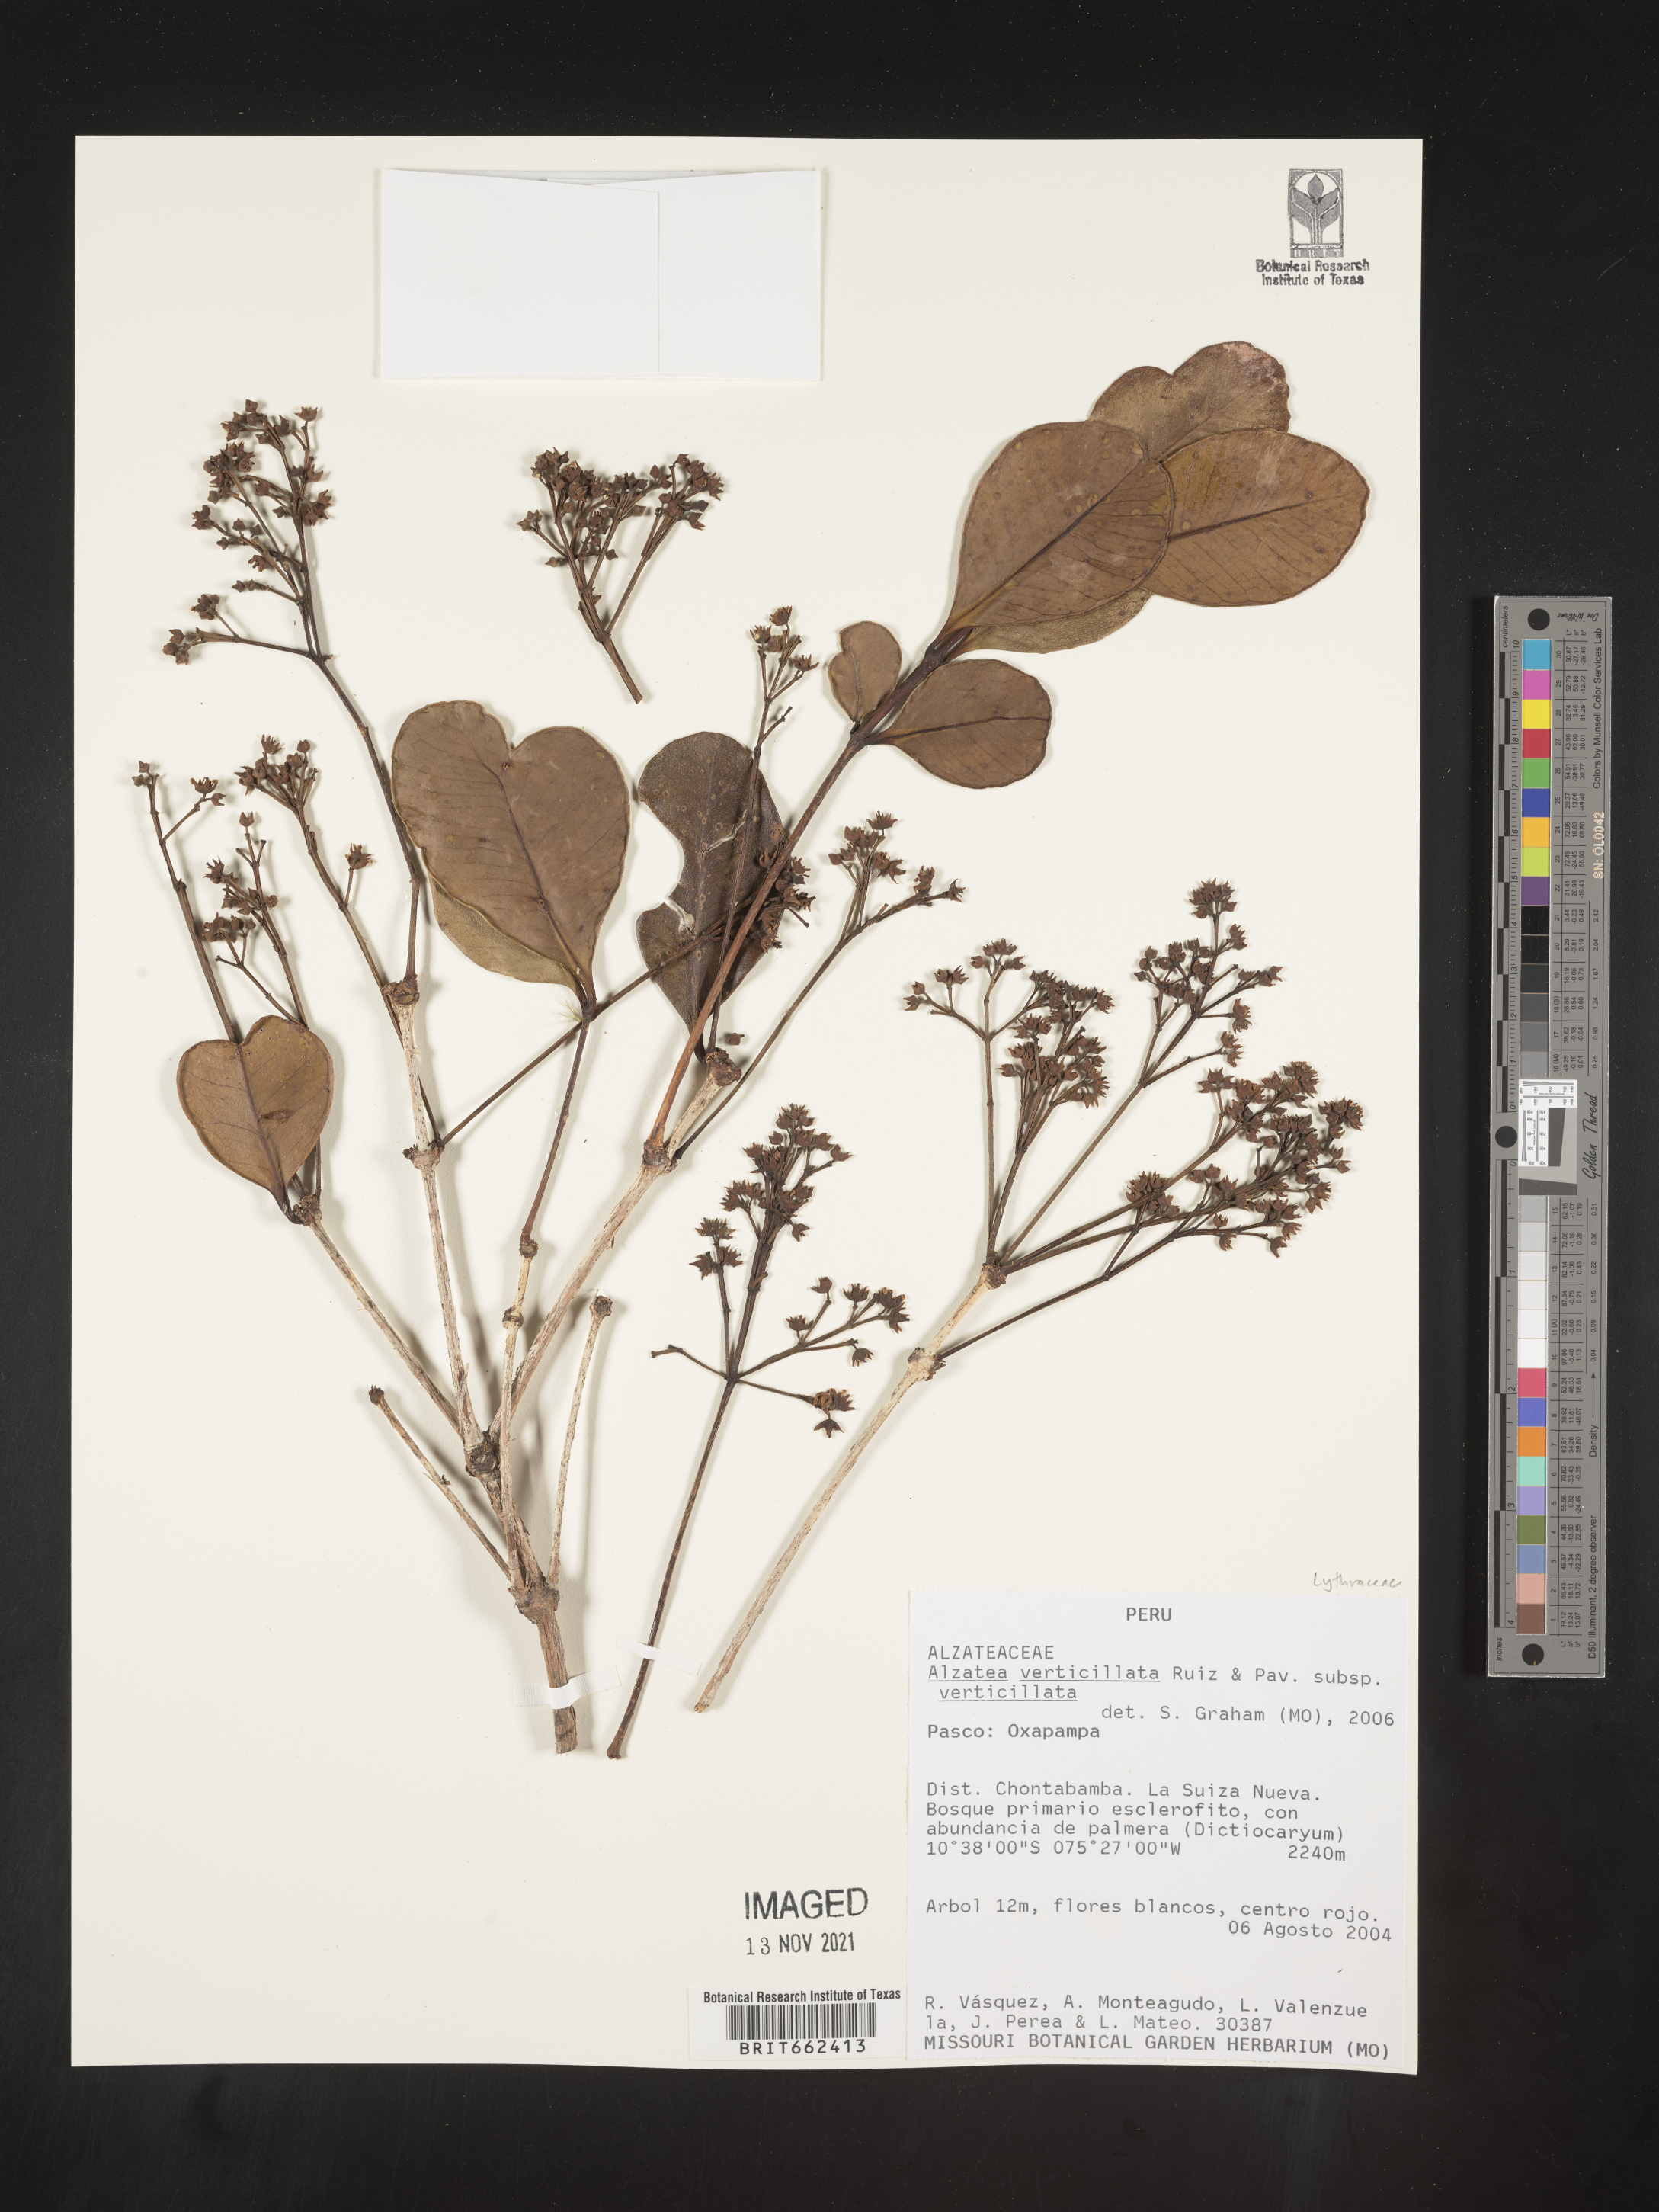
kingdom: Plantae
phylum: Tracheophyta
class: Magnoliopsida
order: Myrtales
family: Alzateaceae
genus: Alzatea
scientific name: Alzatea
